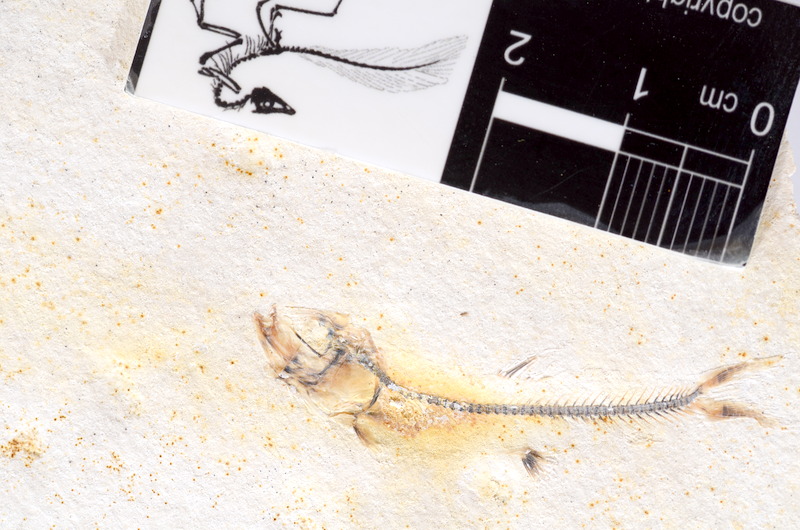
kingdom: Animalia
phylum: Chordata
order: Salmoniformes
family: Orthogonikleithridae
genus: Orthogonikleithrus
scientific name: Orthogonikleithrus hoelli
